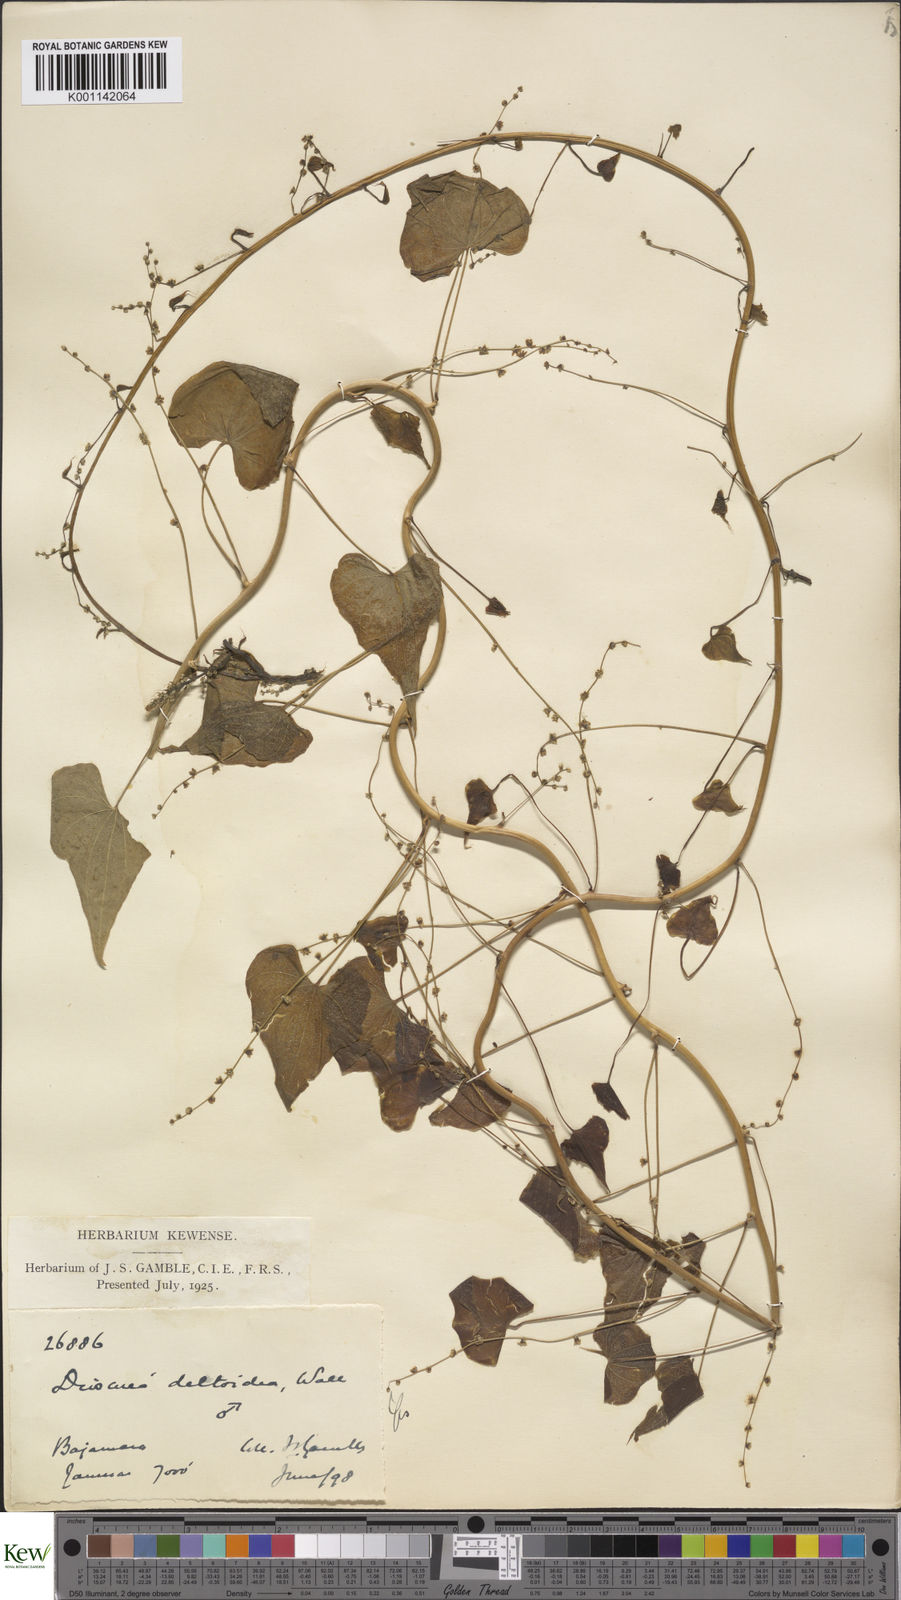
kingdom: Plantae
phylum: Tracheophyta
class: Liliopsida
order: Dioscoreales
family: Dioscoreaceae
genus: Dioscorea
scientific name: Dioscorea deltoidea
